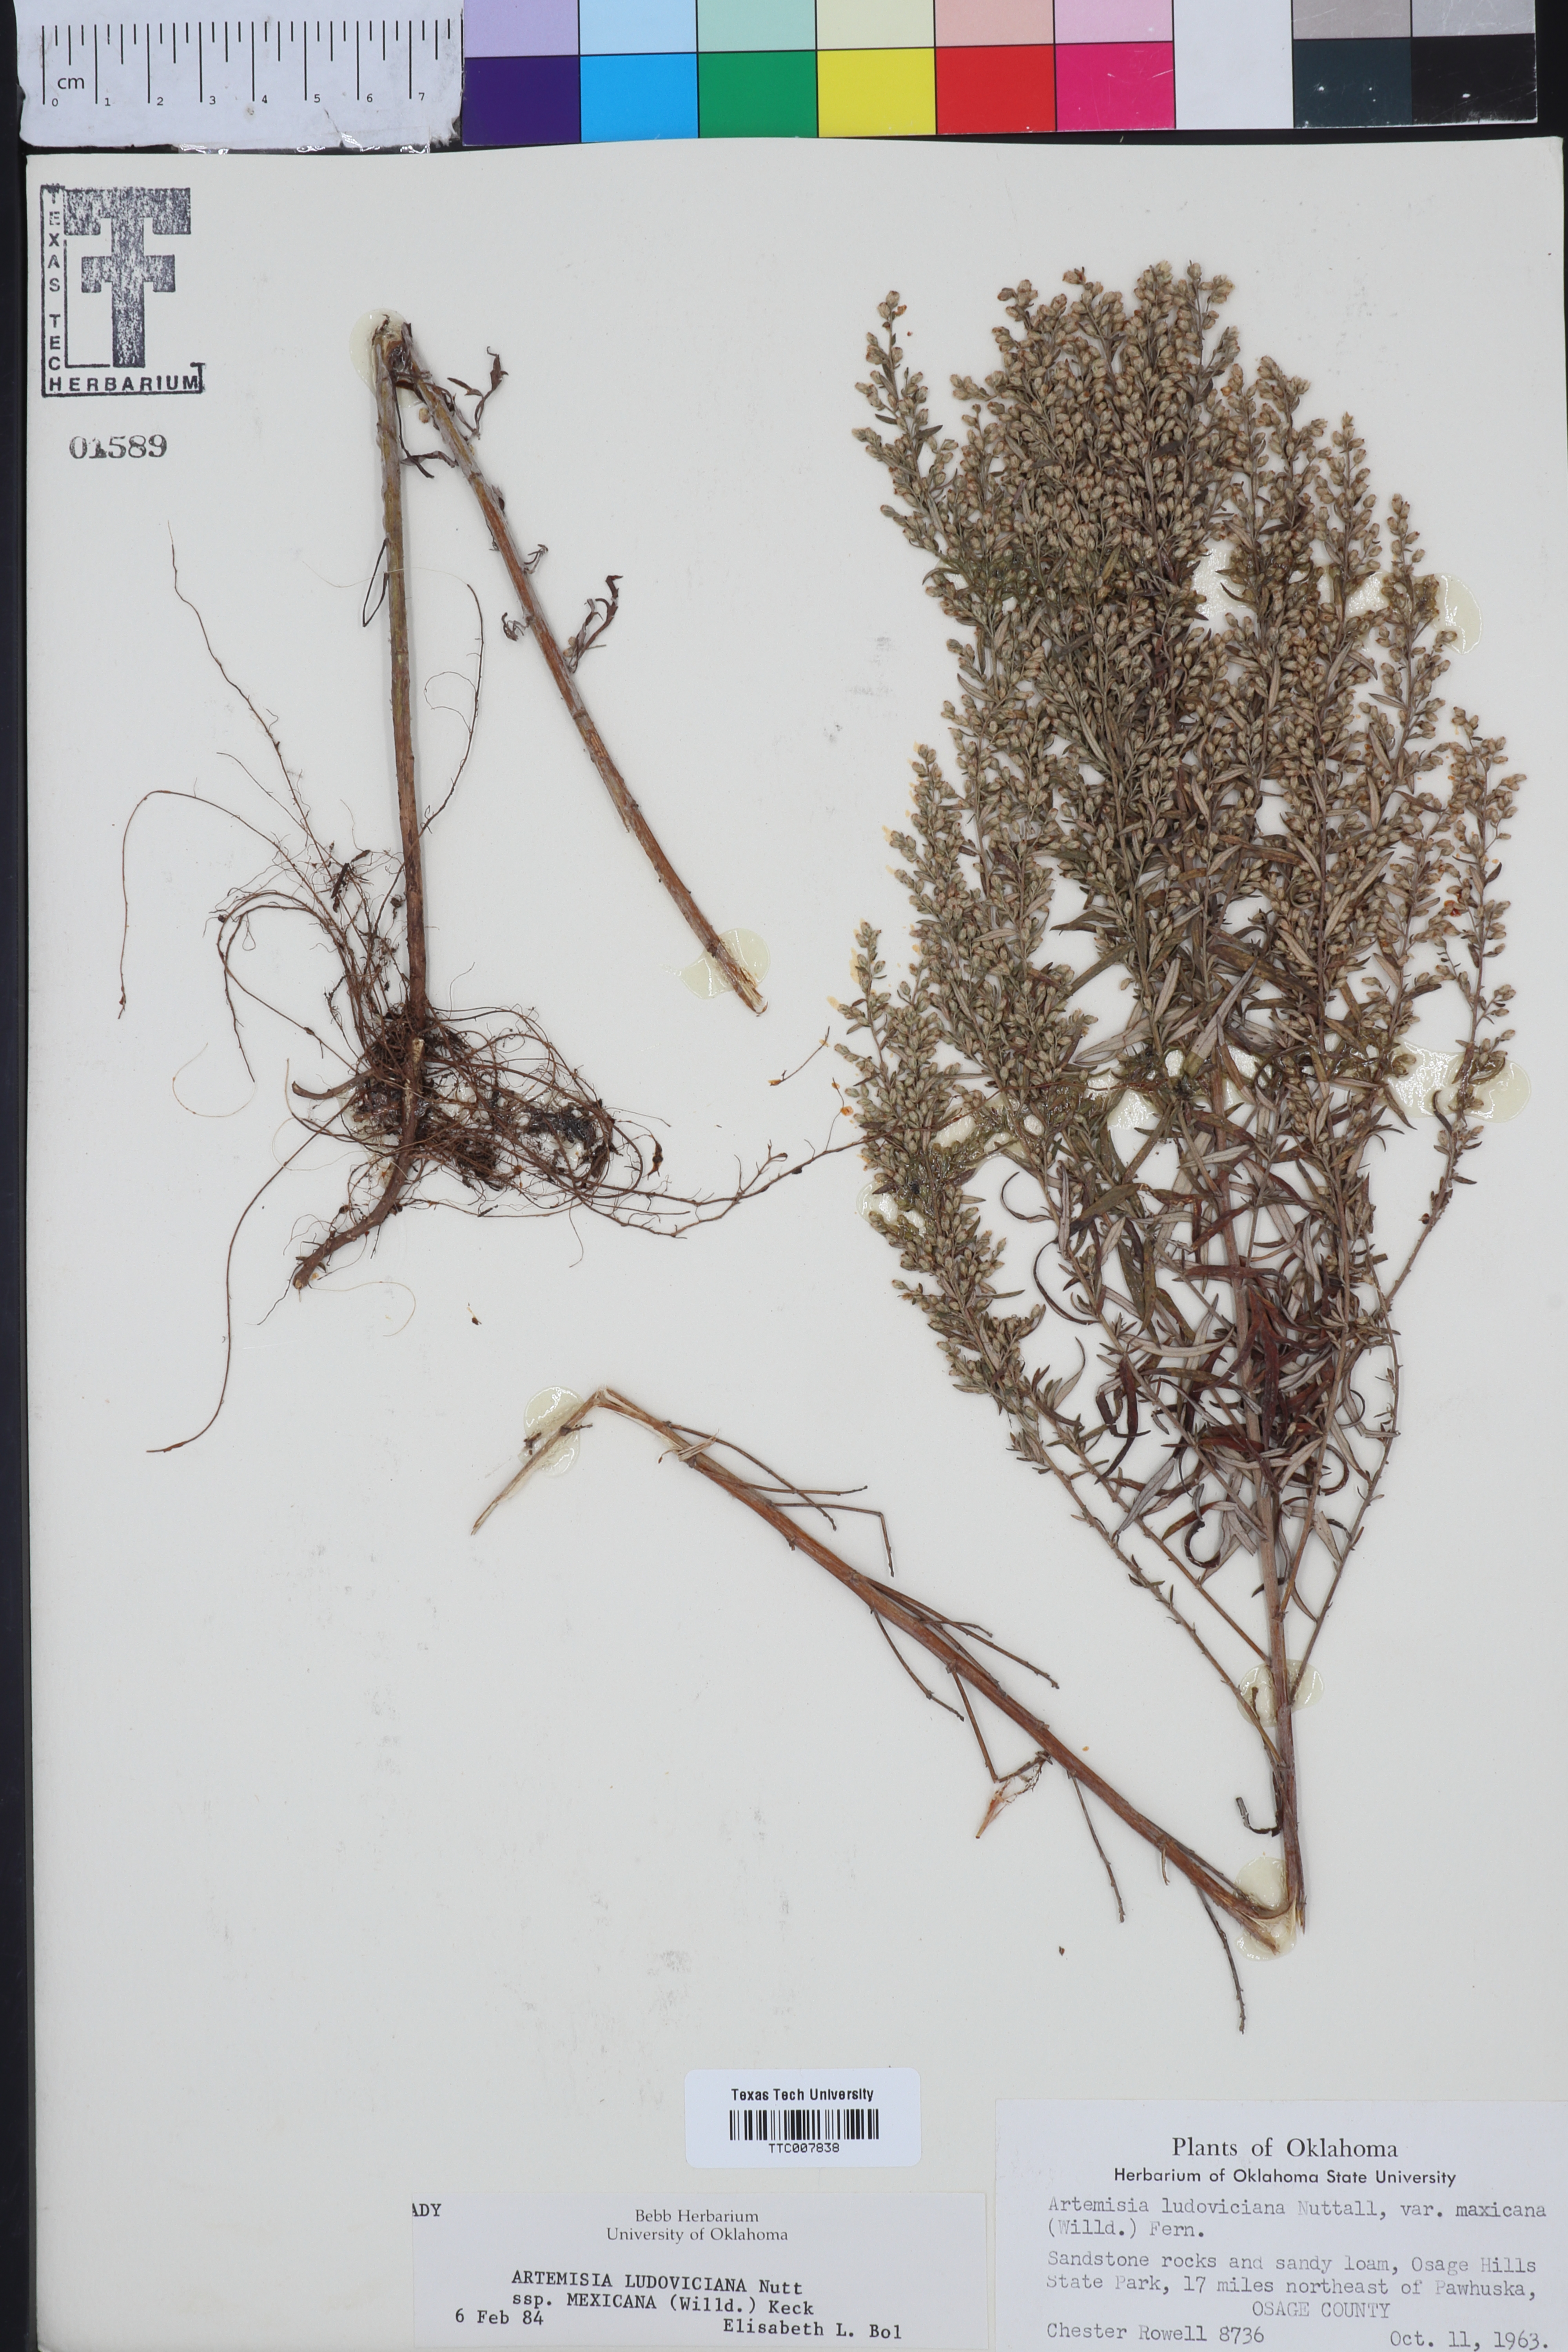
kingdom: Plantae
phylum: Tracheophyta
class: Magnoliopsida
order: Asterales
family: Asteraceae
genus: Artemisia
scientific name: Artemisia ludoviciana
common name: Western mugwort
